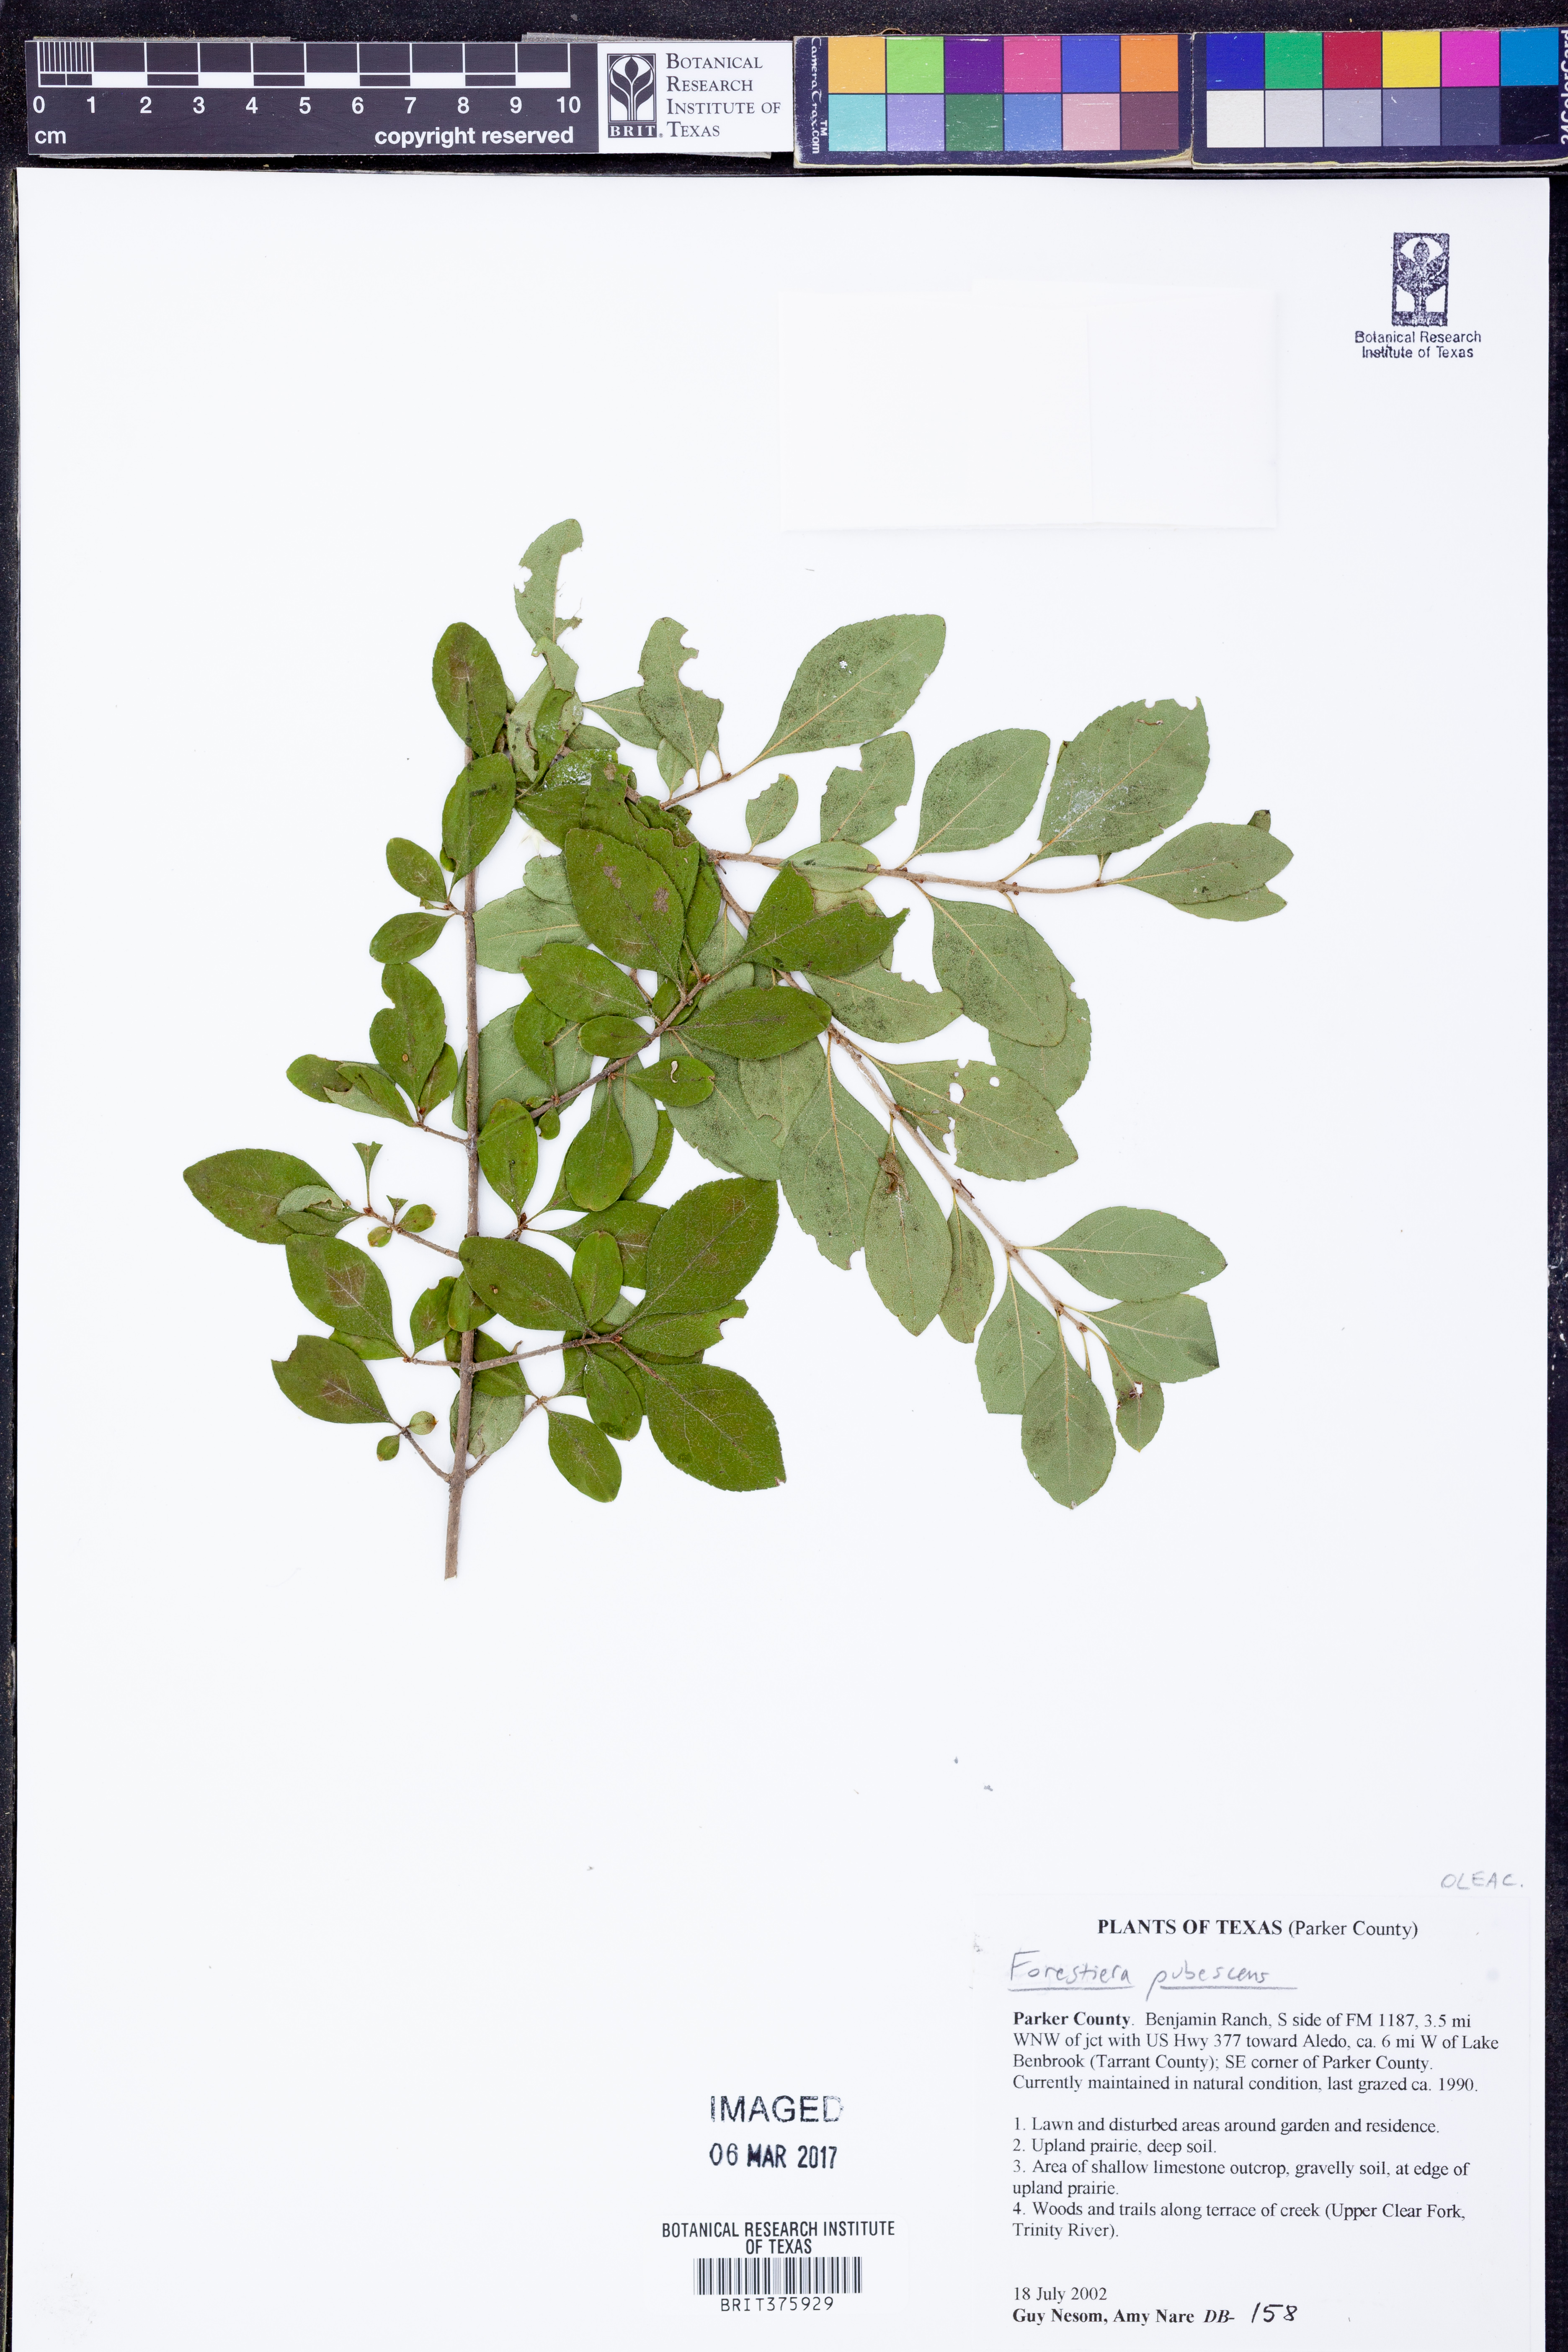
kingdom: Plantae
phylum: Tracheophyta
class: Magnoliopsida
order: Lamiales
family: Oleaceae
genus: Forestiera
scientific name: Forestiera pubescens
